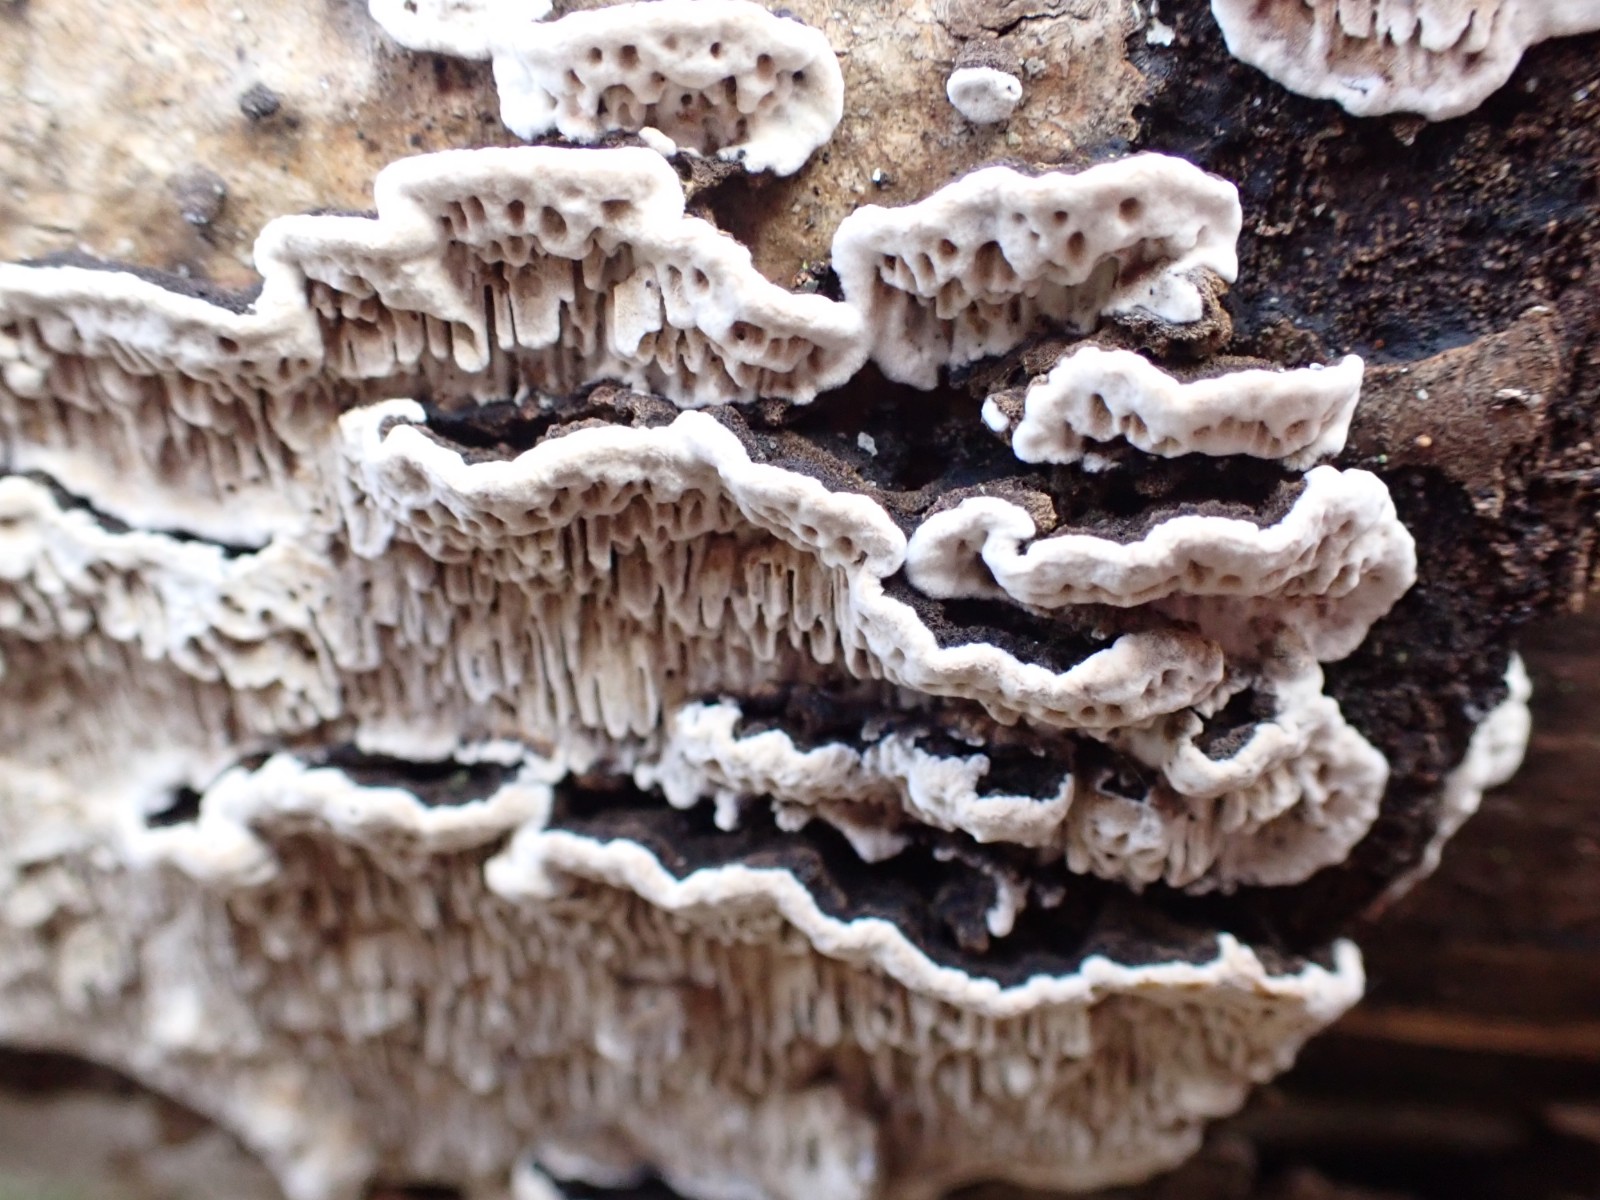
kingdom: Fungi
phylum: Basidiomycota
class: Agaricomycetes
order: Polyporales
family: Polyporaceae
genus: Podofomes
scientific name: Podofomes mollis
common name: blød begporesvamp
